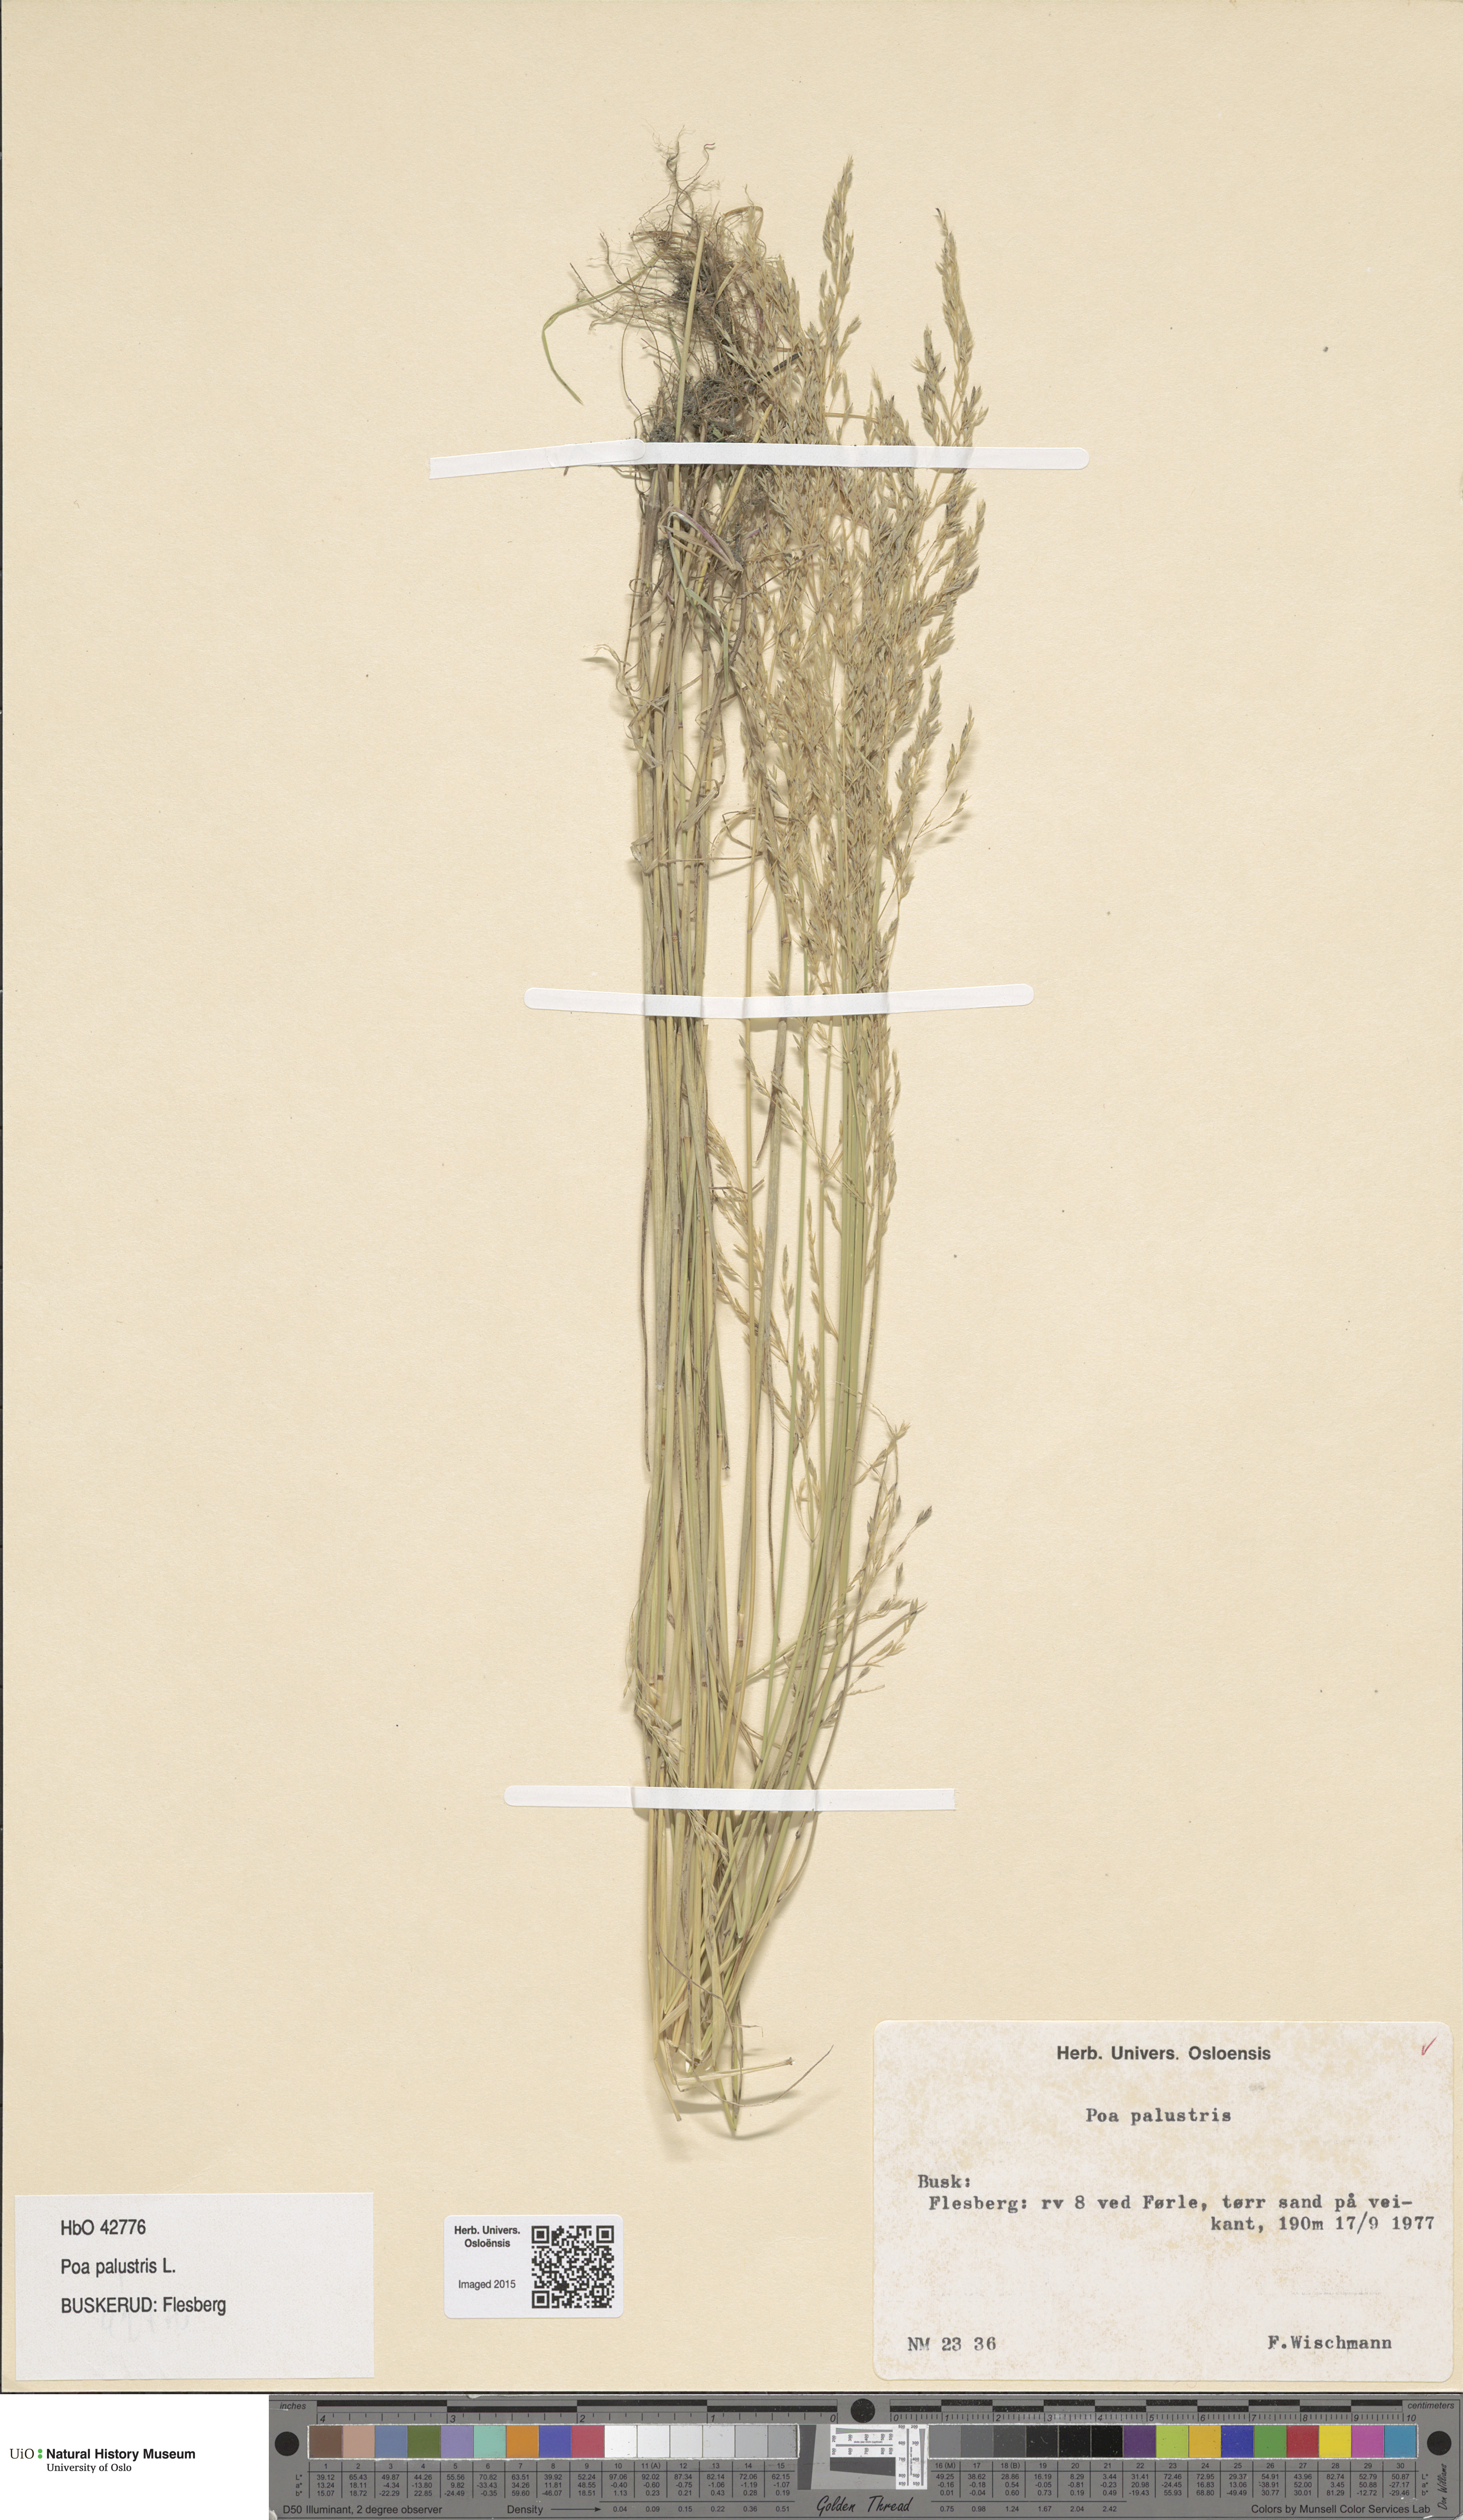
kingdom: Plantae
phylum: Tracheophyta
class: Liliopsida
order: Poales
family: Poaceae
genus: Poa
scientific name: Poa palustris
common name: Swamp meadow-grass
